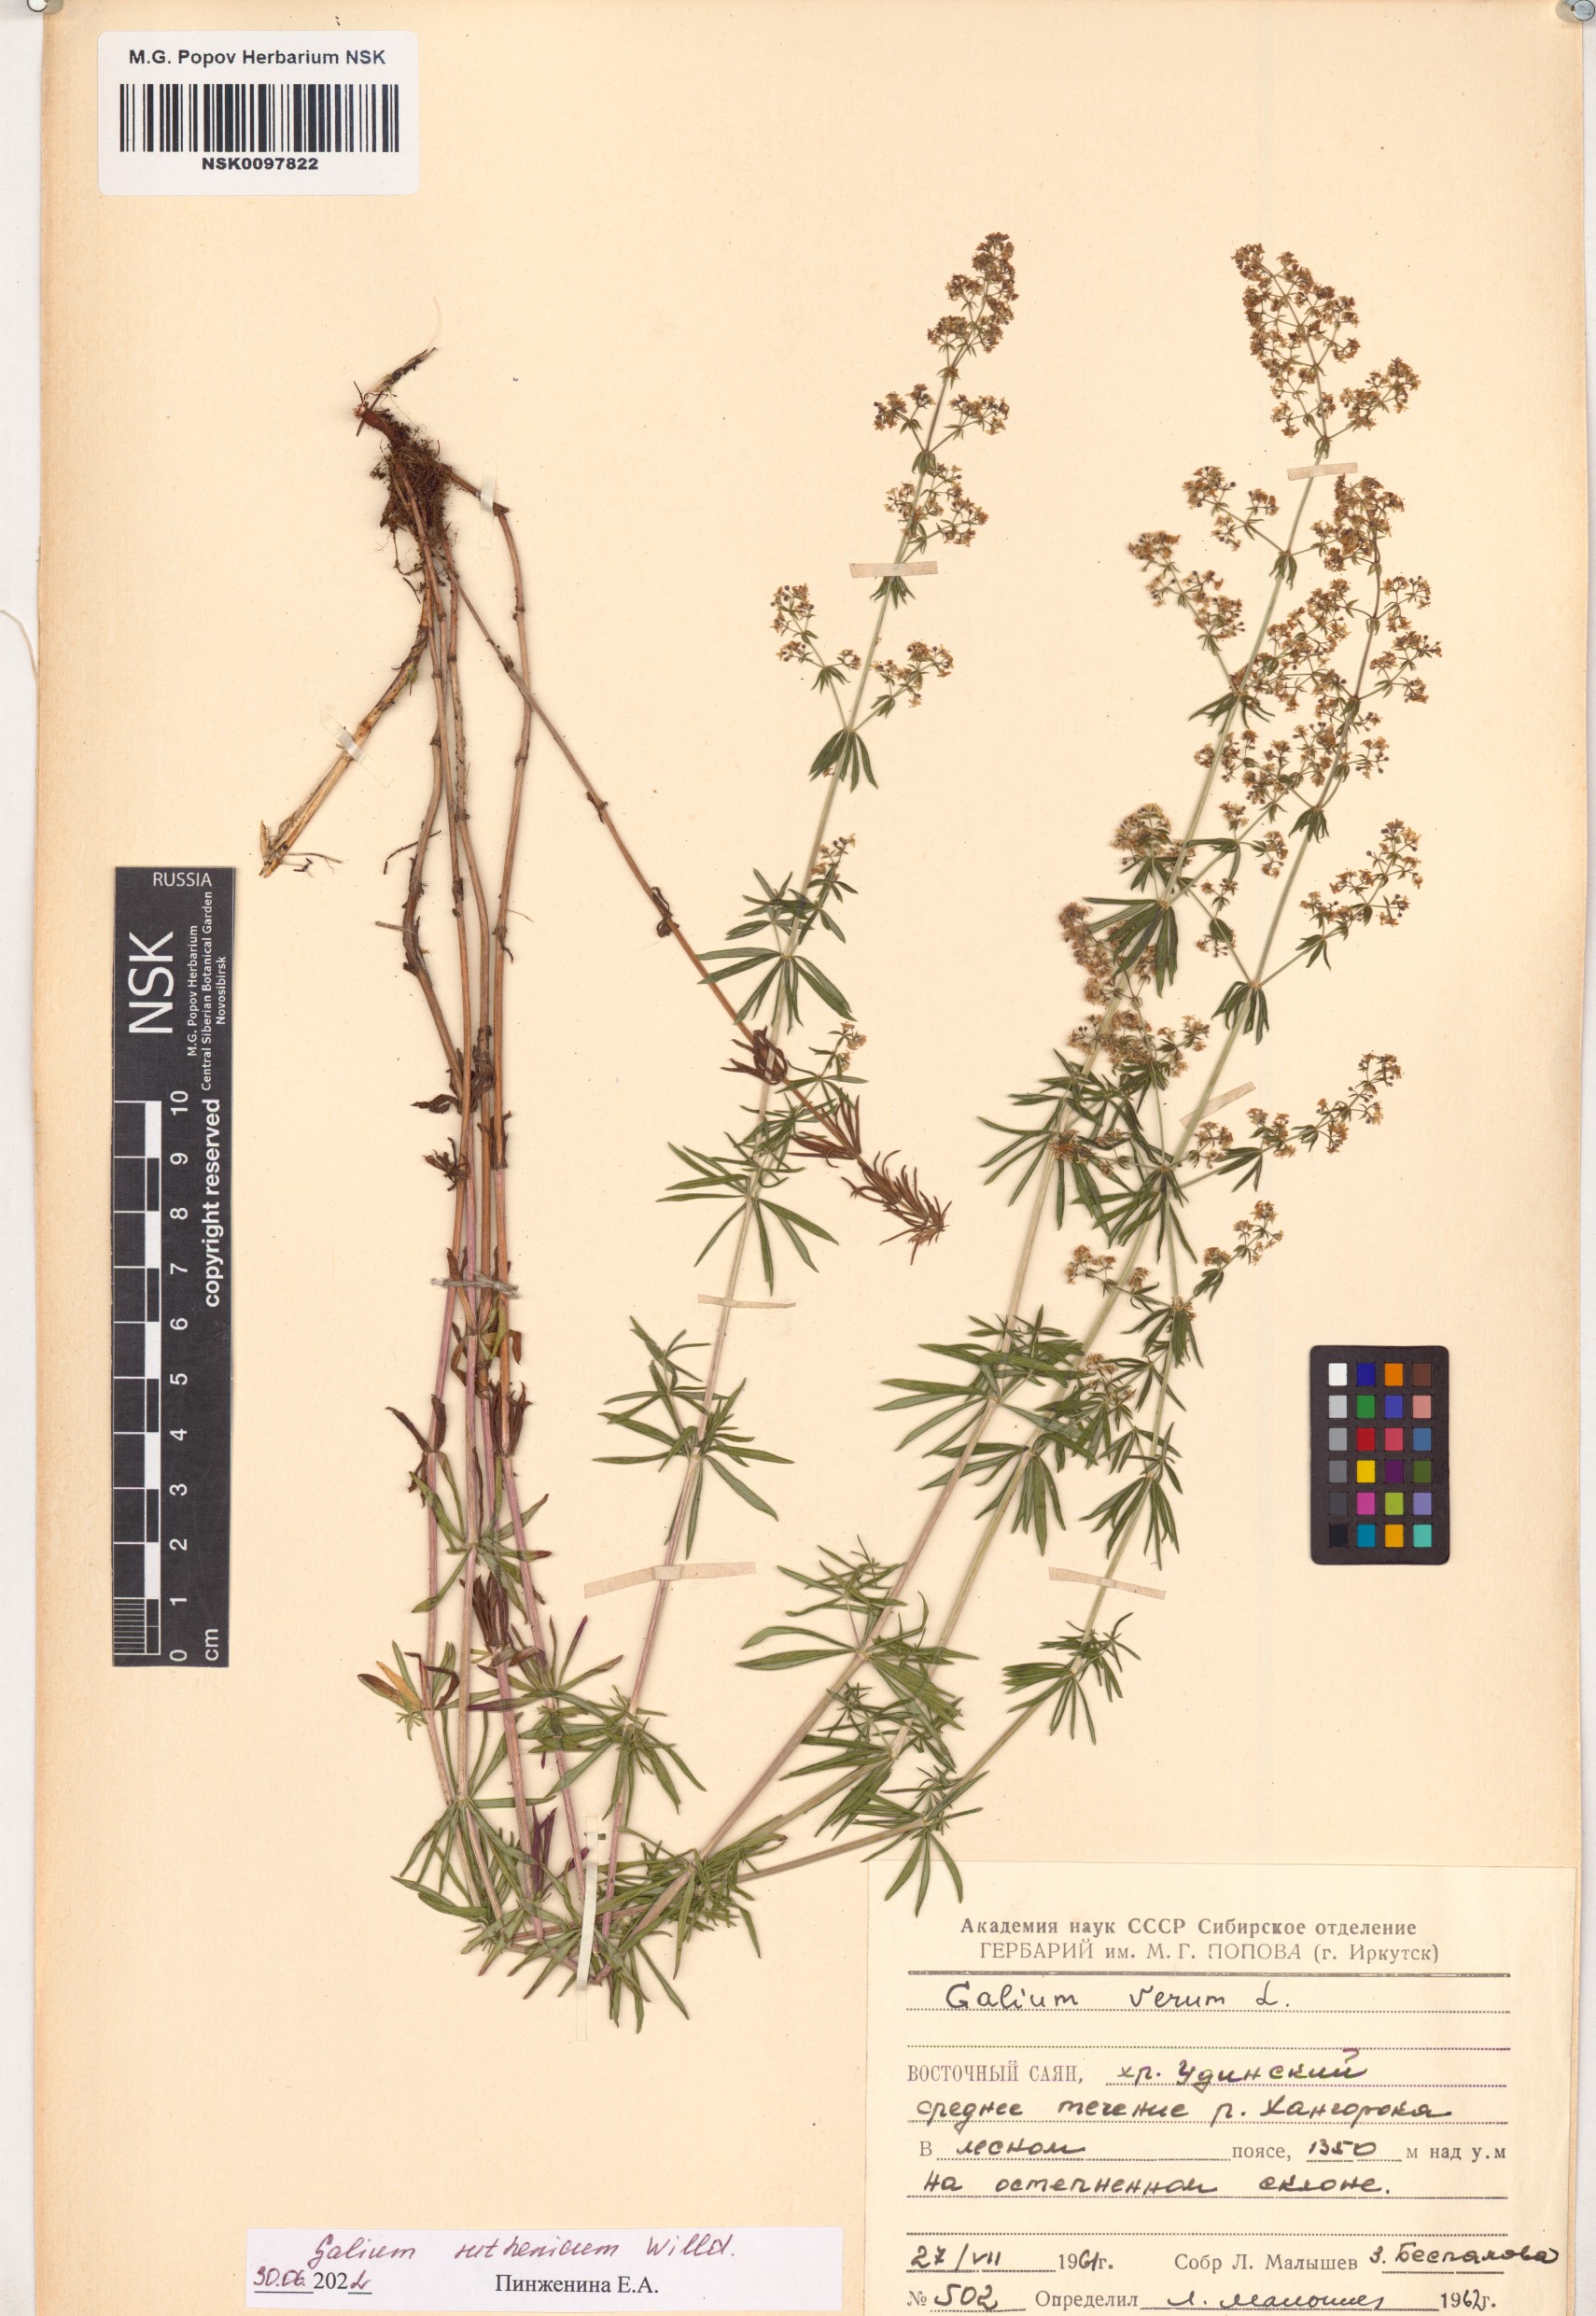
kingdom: Plantae
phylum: Tracheophyta
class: Magnoliopsida
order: Gentianales
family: Rubiaceae
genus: Galium
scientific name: Galium verum
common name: Lady's bedstraw
